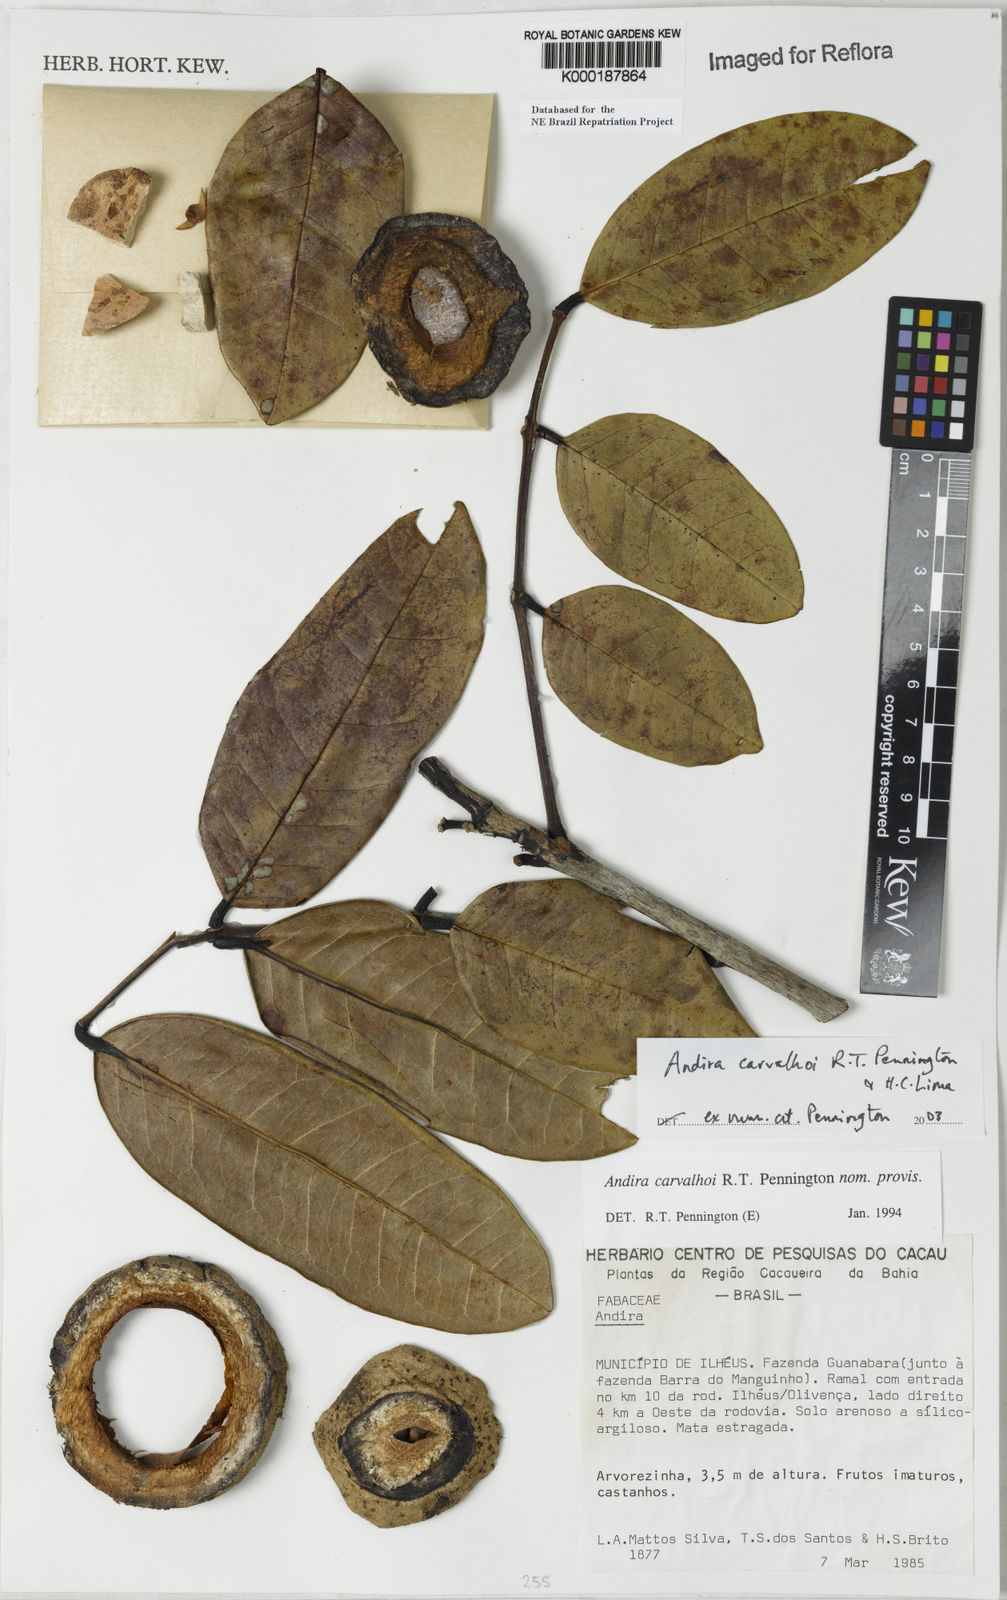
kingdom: Plantae
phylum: Tracheophyta
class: Magnoliopsida
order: Fabales
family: Fabaceae
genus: Andira
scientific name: Andira carvalhoi
